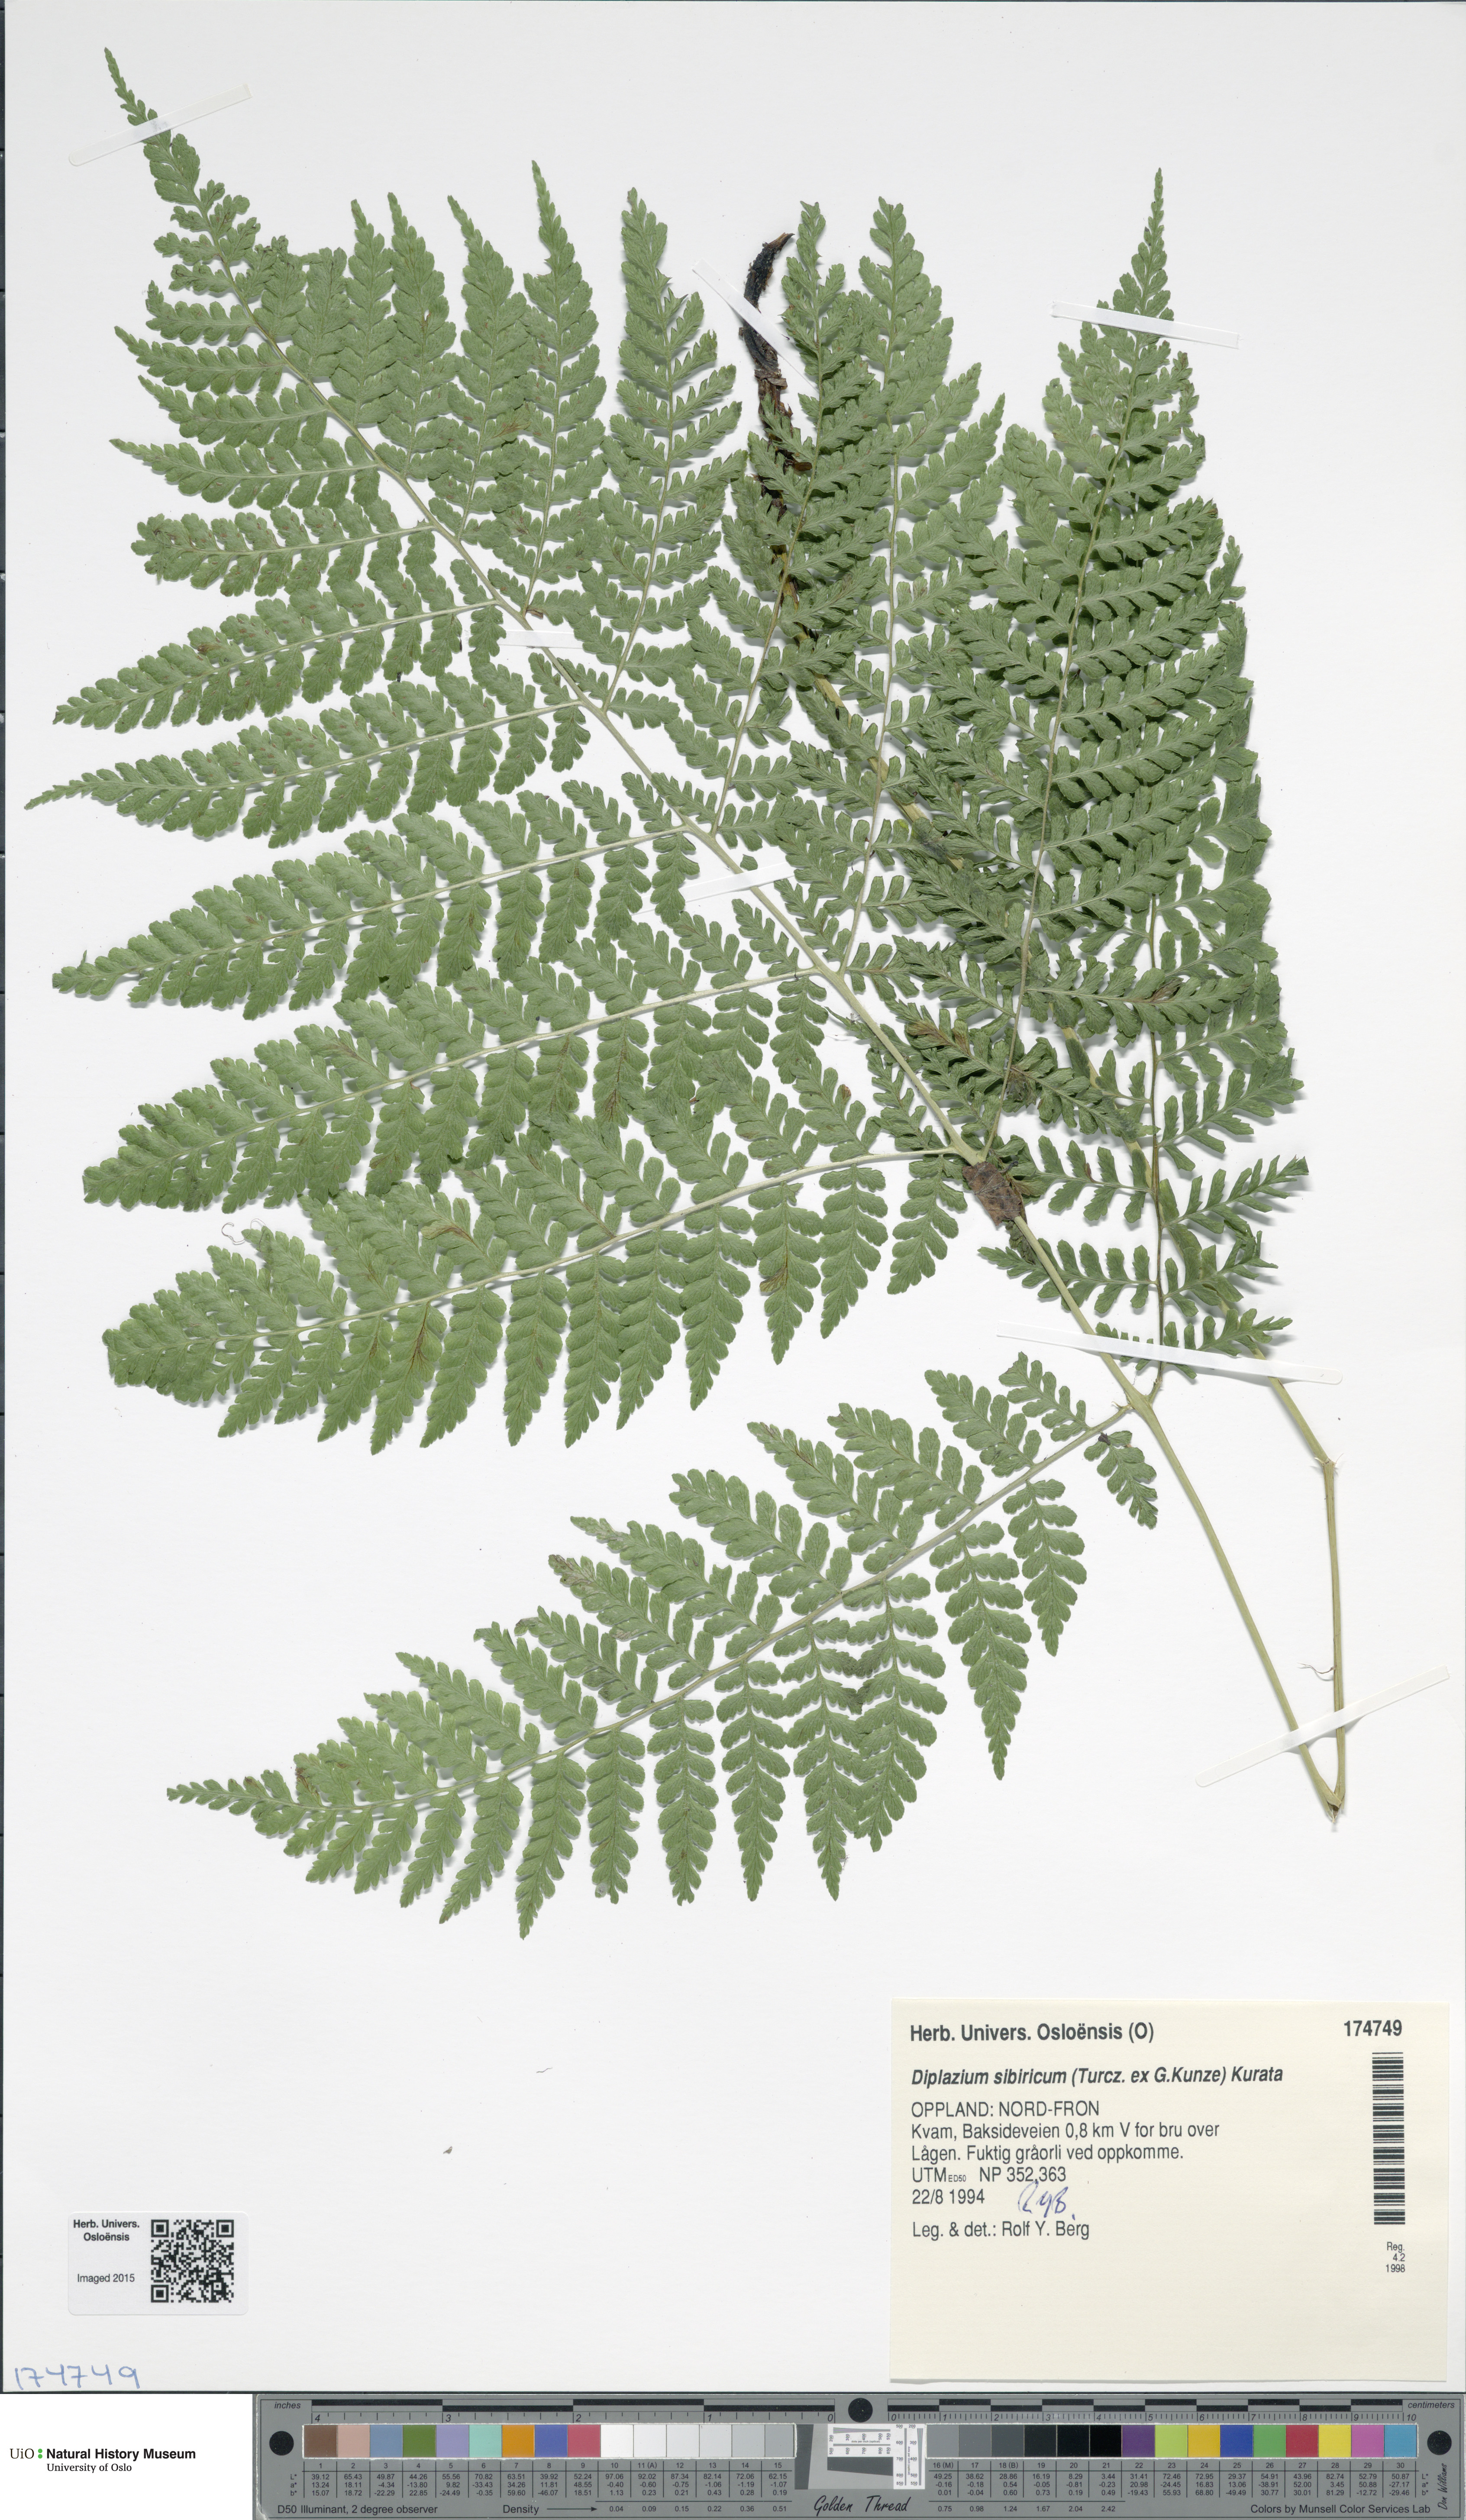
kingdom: Plantae
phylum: Tracheophyta
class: Polypodiopsida
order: Polypodiales
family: Athyriaceae
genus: Diplazium
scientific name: Diplazium sibiricum
